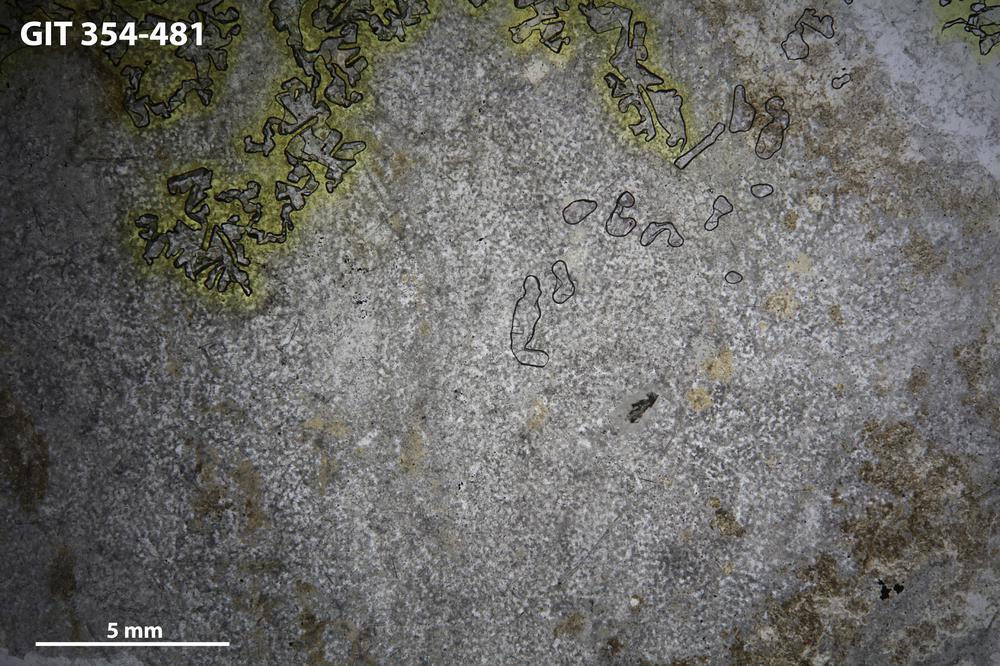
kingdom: Animalia
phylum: Porifera
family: Ecclimadictyidae
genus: Ecclimadictyon
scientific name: Ecclimadictyon Clathrodictyon microvesiculosum
